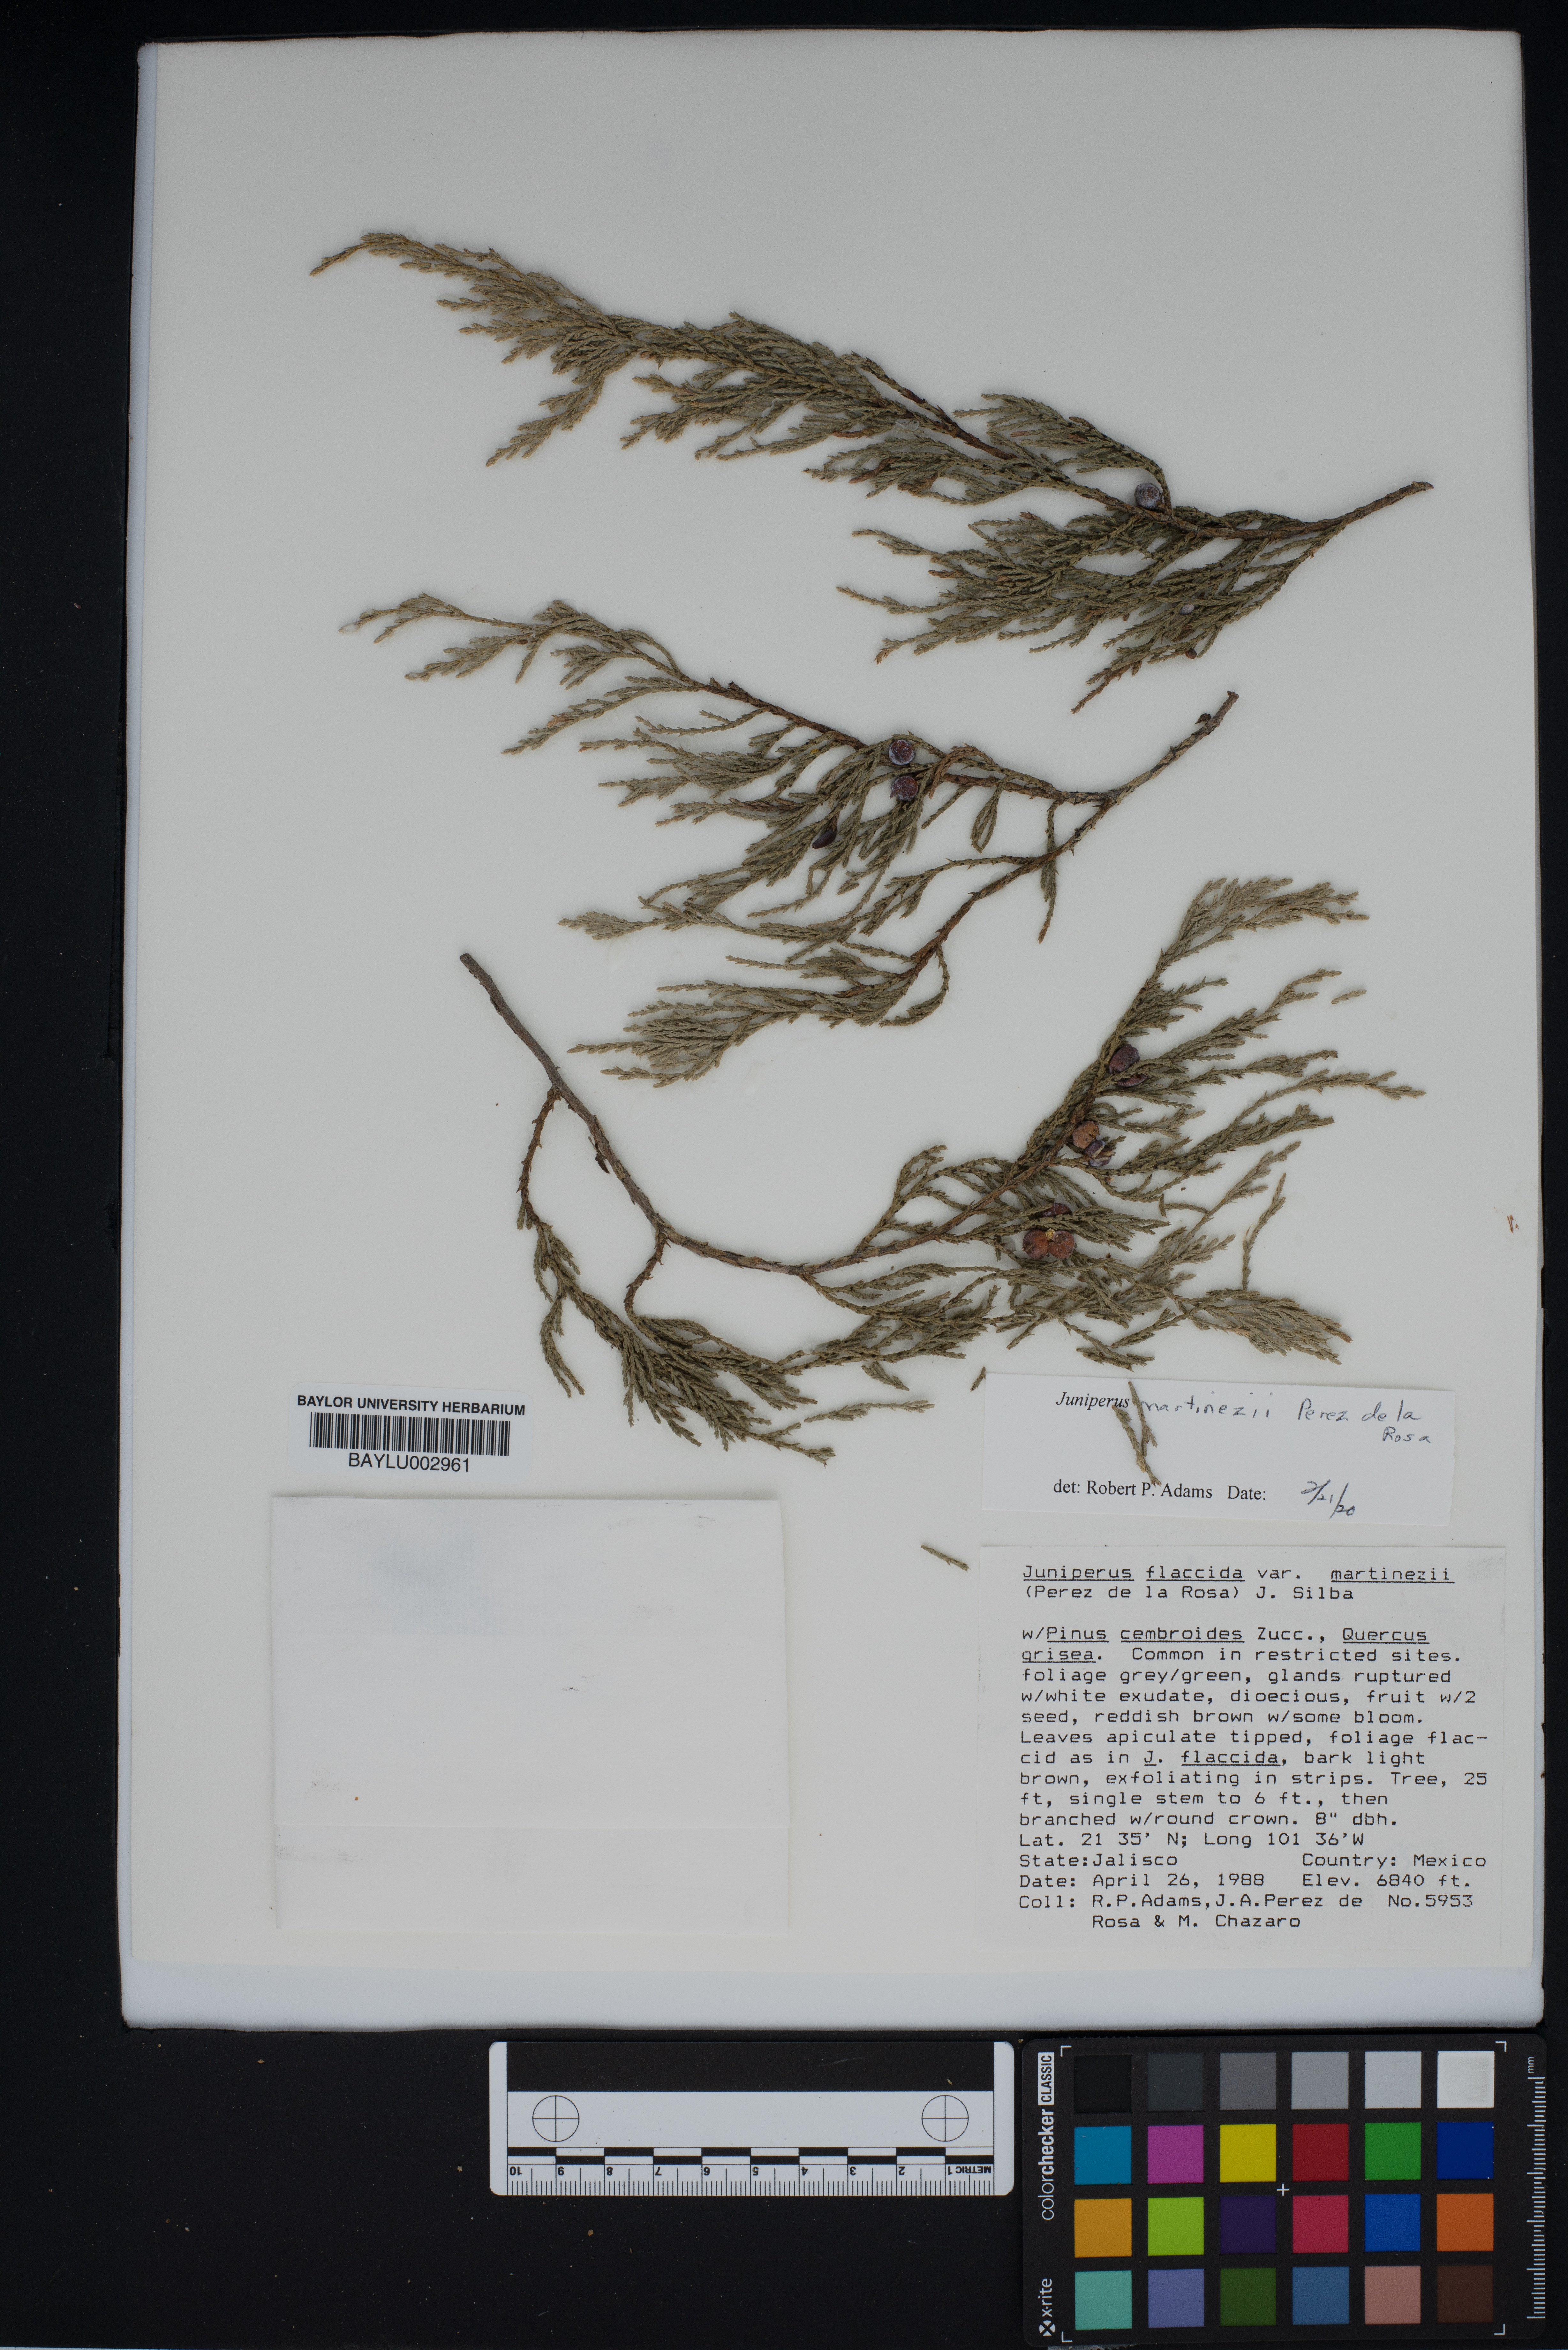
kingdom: Plantae
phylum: Tracheophyta
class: Pinopsida
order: Pinales
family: Cupressaceae
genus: Juniperus
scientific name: Juniperus flaccida
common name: Drooping juniper
